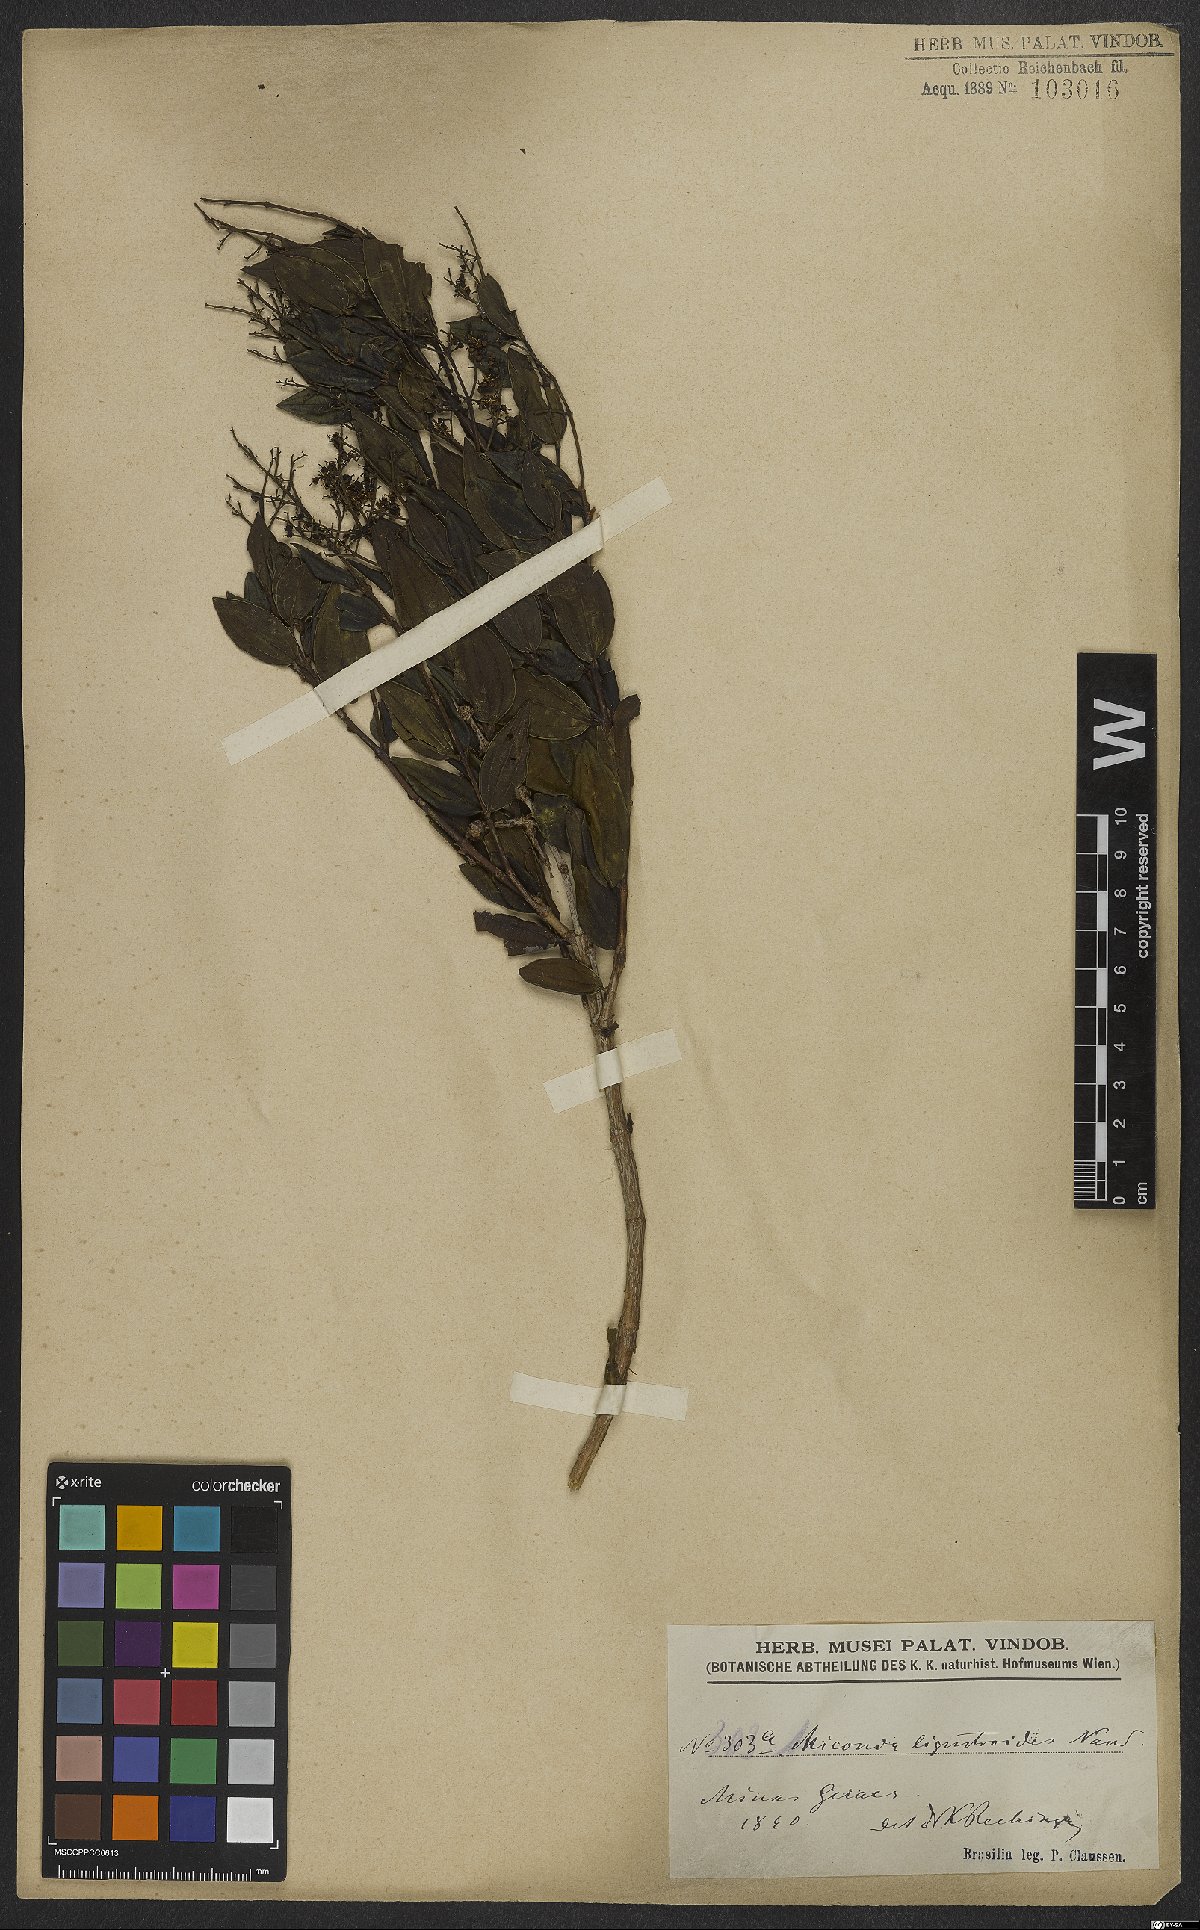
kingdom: Plantae
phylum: Tracheophyta
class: Magnoliopsida
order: Myrtales
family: Melastomataceae
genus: Miconia
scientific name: Miconia ligustroides
